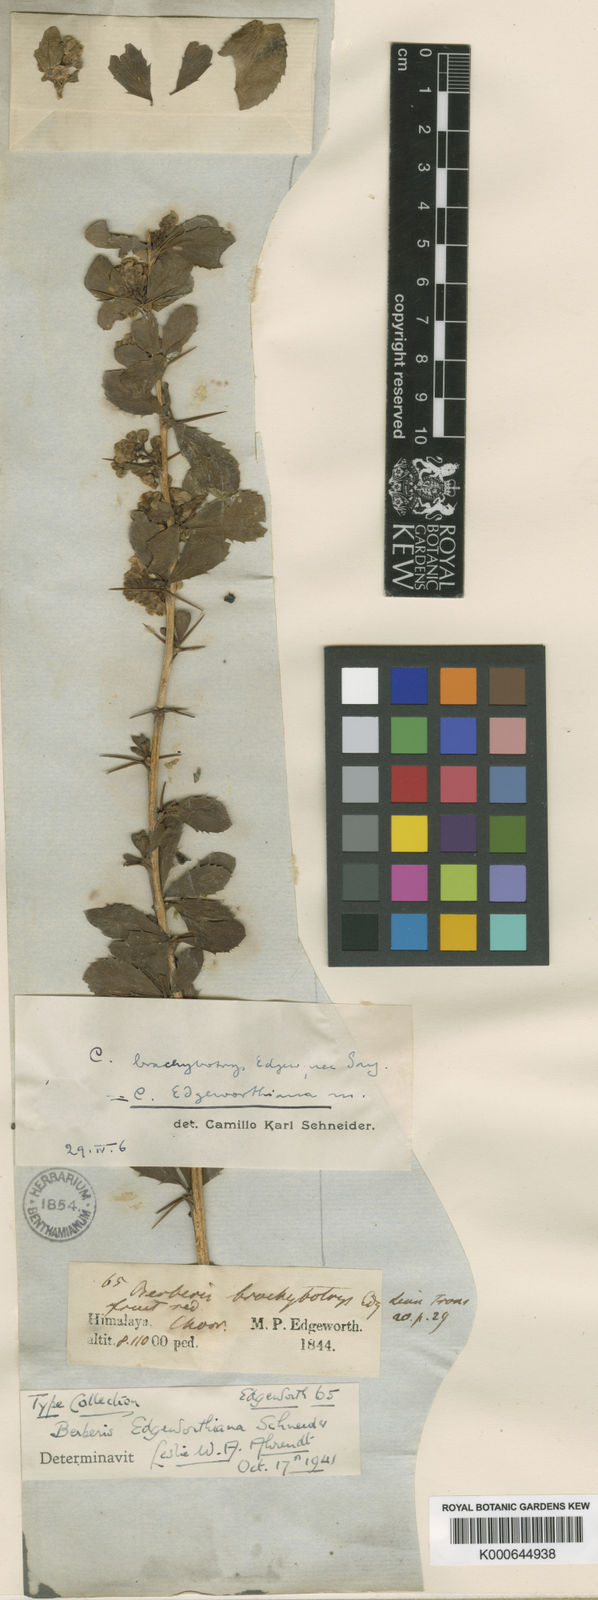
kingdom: Plantae
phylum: Tracheophyta
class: Magnoliopsida
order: Ranunculales
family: Berberidaceae
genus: Berberis
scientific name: Berberis kunawurensis
